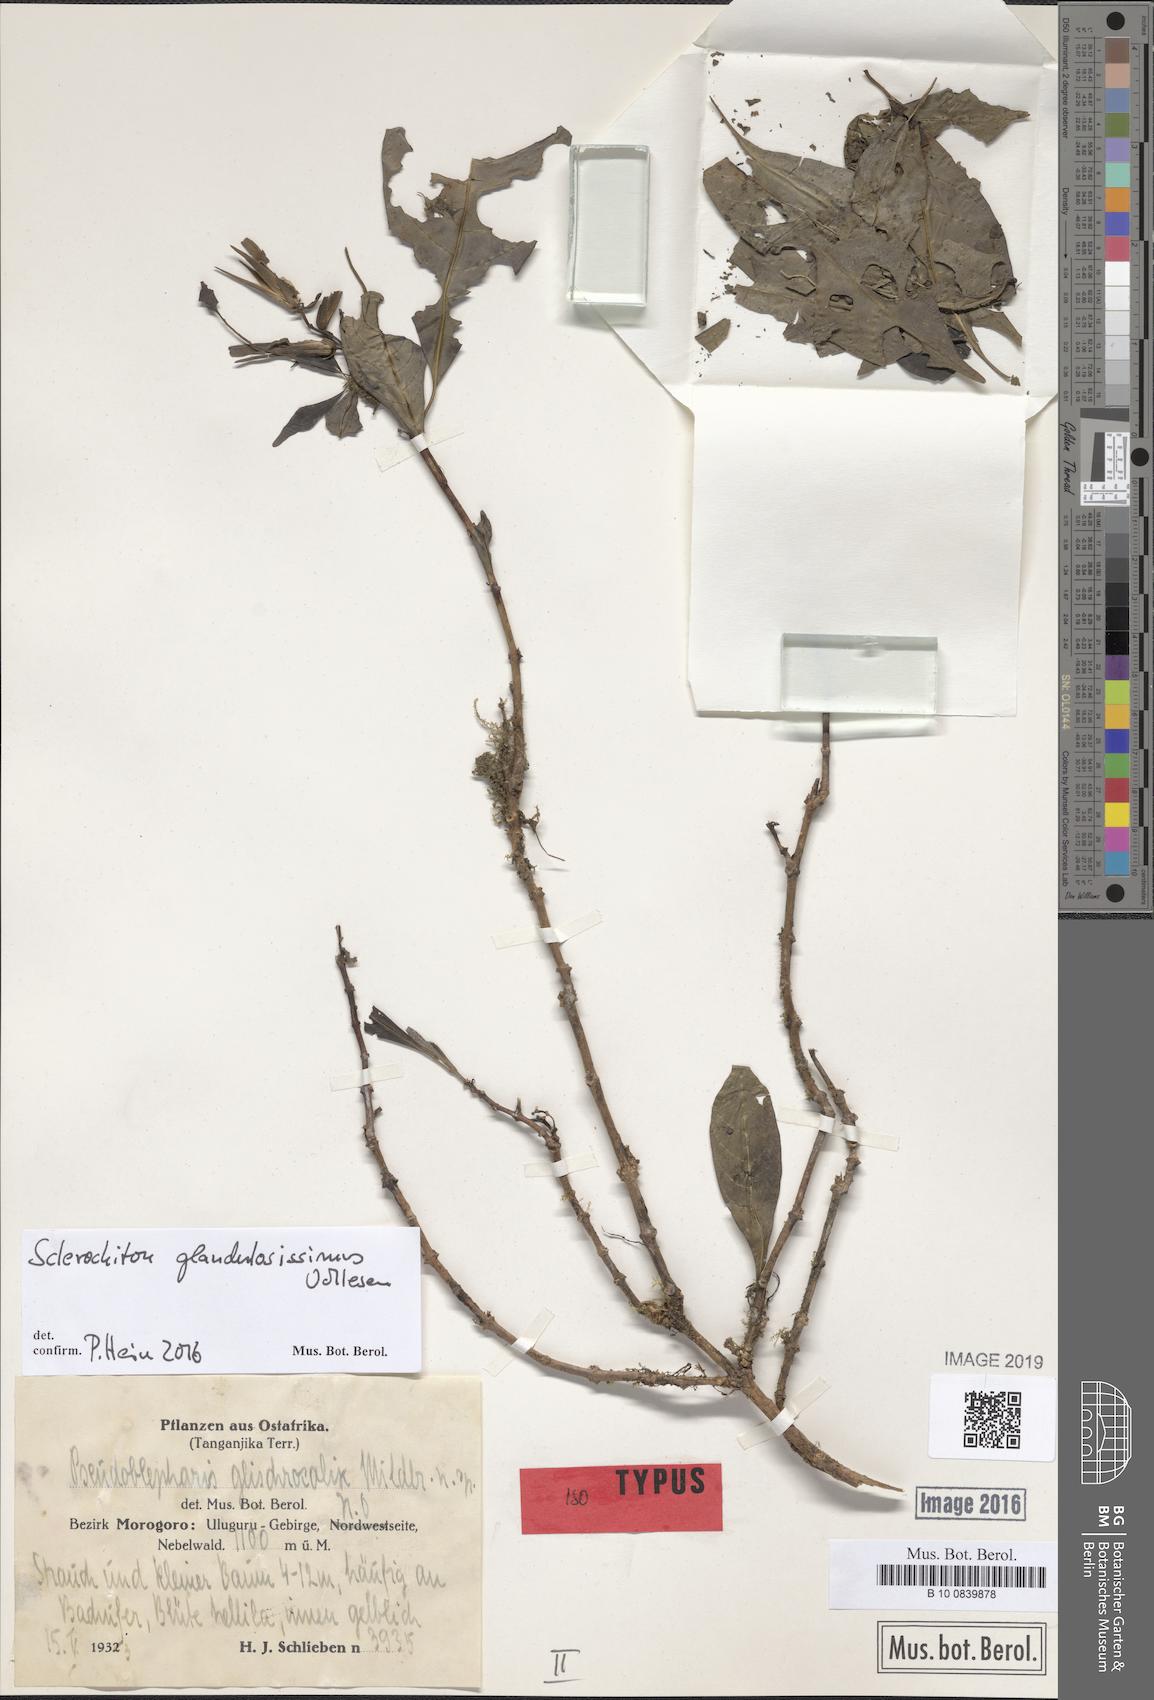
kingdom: Plantae
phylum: Tracheophyta
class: Magnoliopsida
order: Lamiales
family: Acanthaceae
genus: Sclerochiton
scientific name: Sclerochiton glandulosissimus
